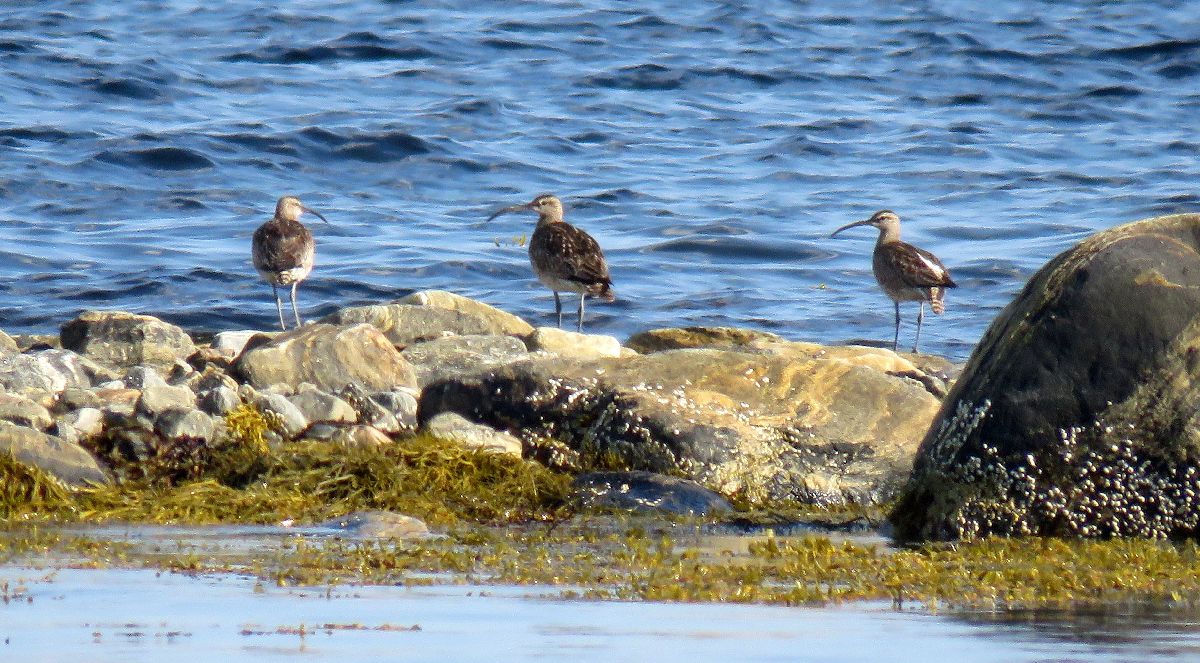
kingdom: Animalia
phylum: Chordata
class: Aves
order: Charadriiformes
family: Scolopacidae
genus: Numenius
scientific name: Numenius phaeopus
